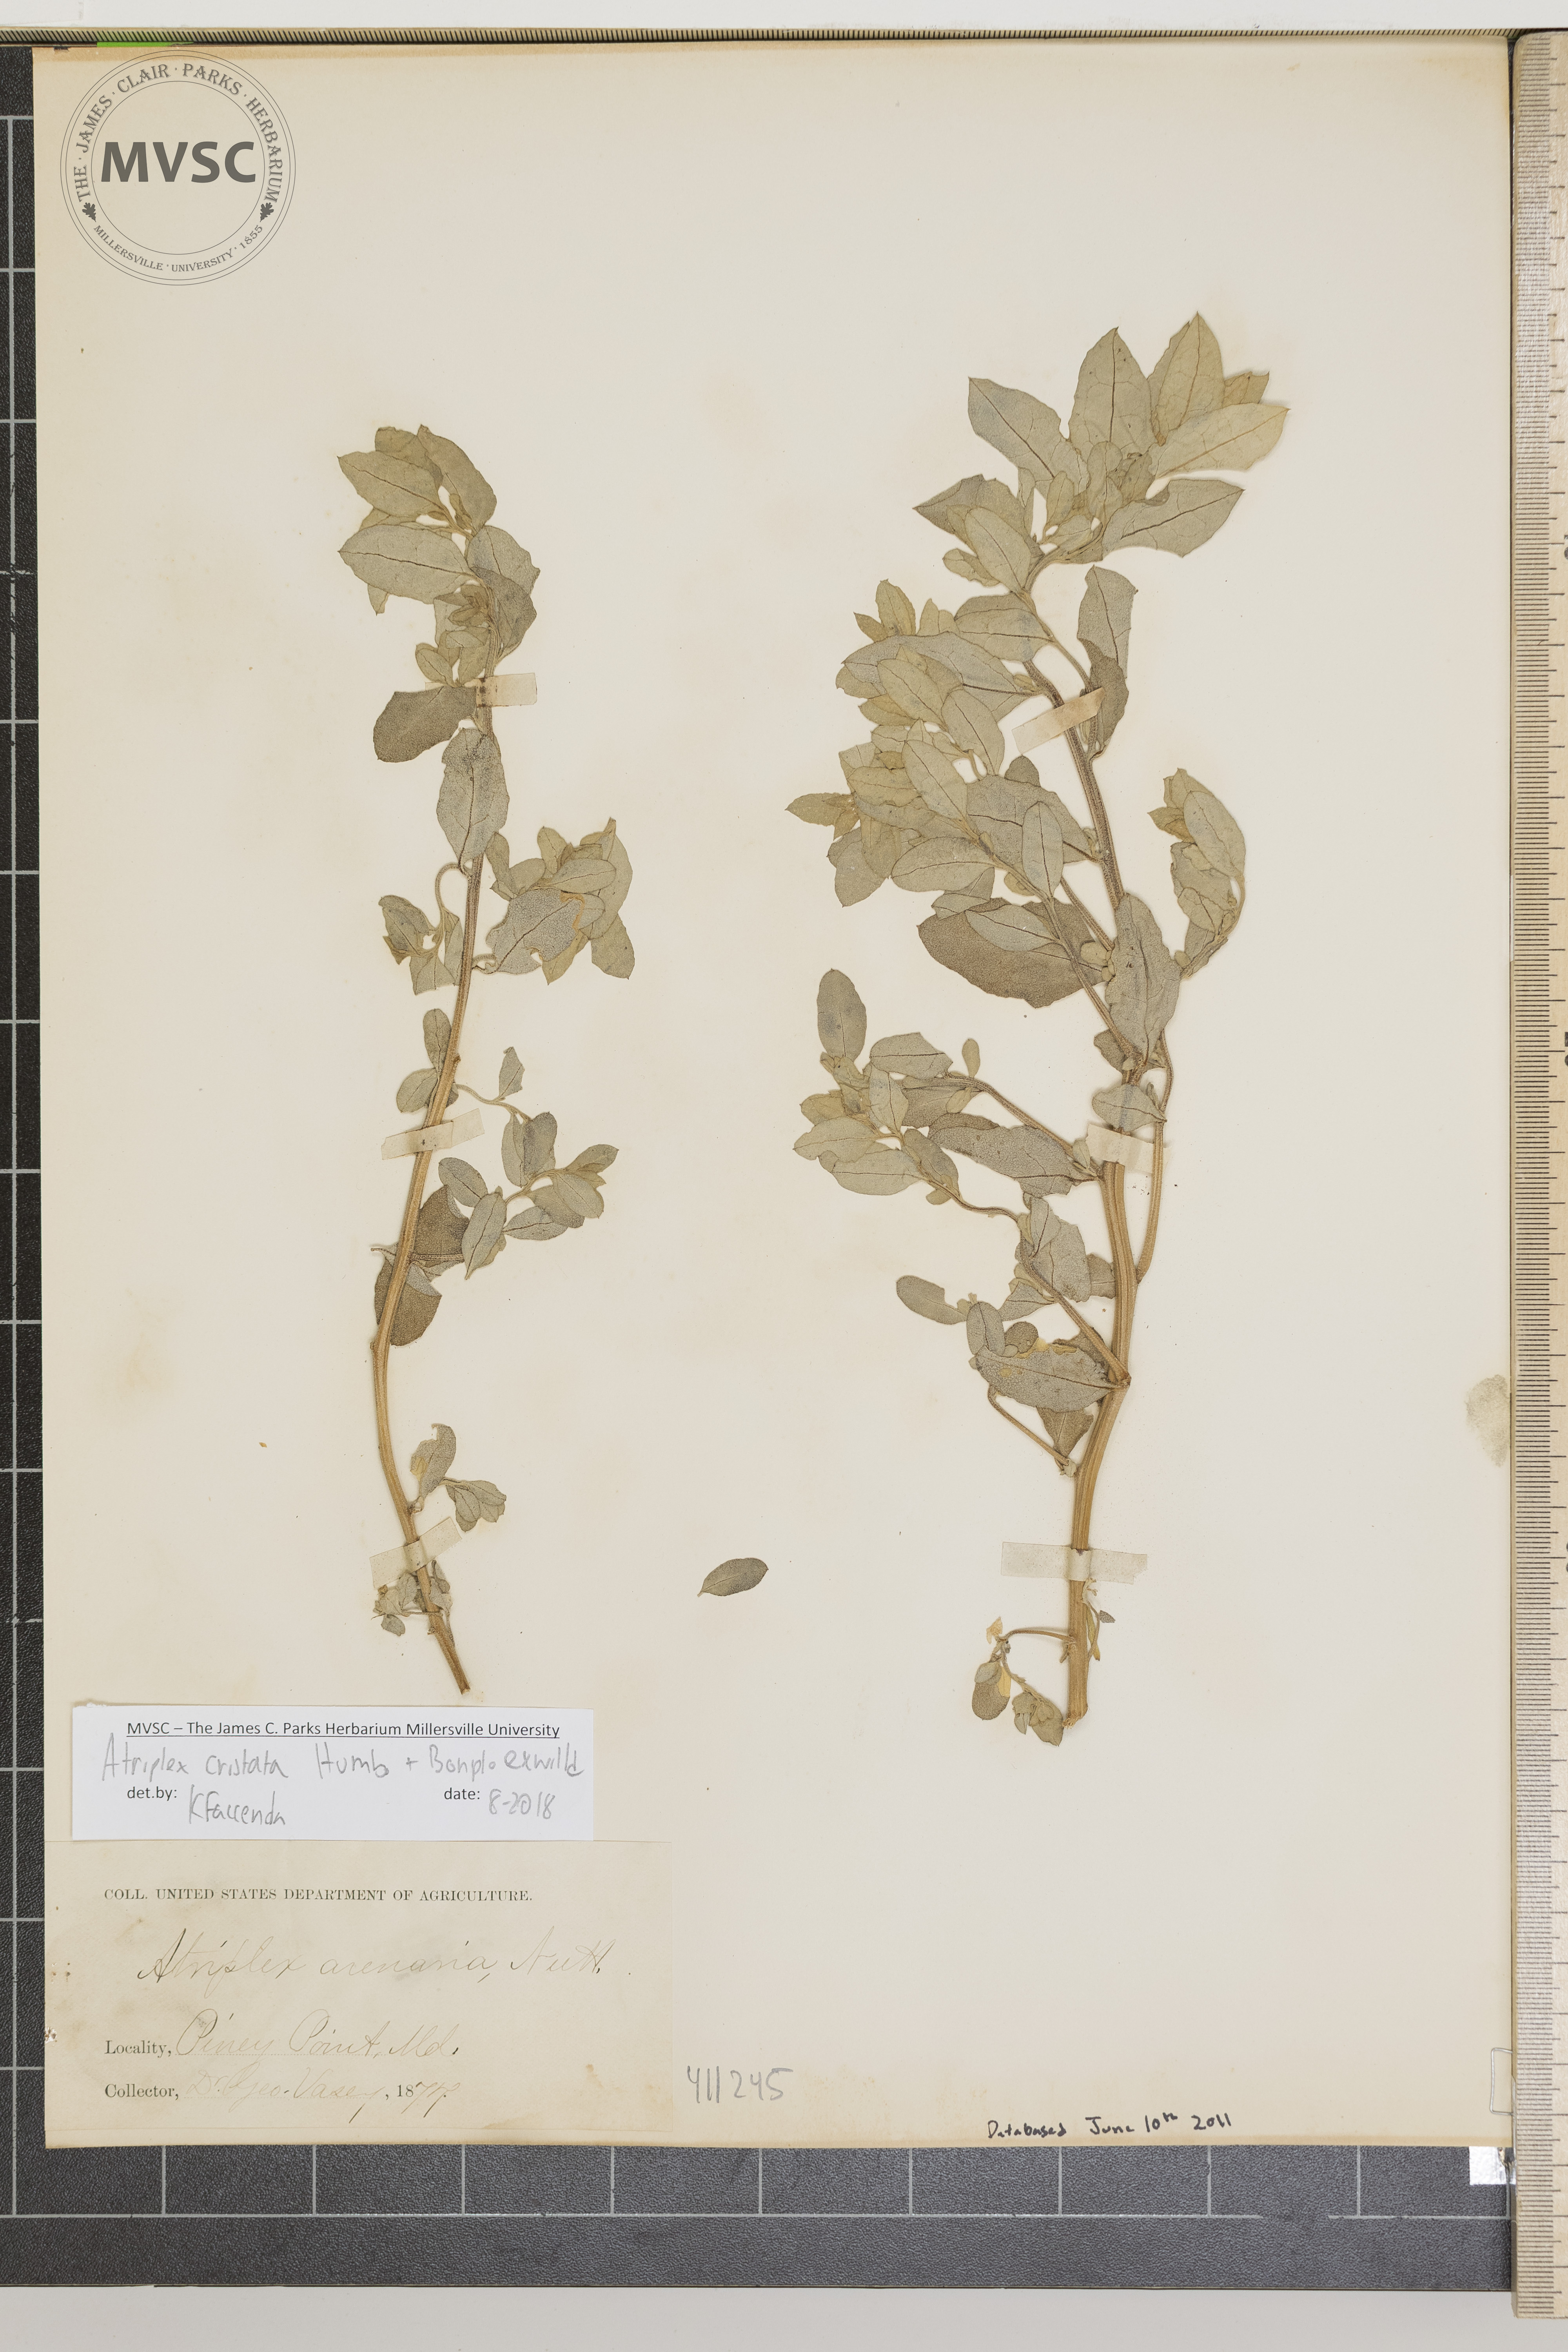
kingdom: Plantae
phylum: Tracheophyta
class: Magnoliopsida
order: Caryophyllales
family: Amaranthaceae
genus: Atriplex
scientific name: Atriplex mucronata
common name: Quelite
